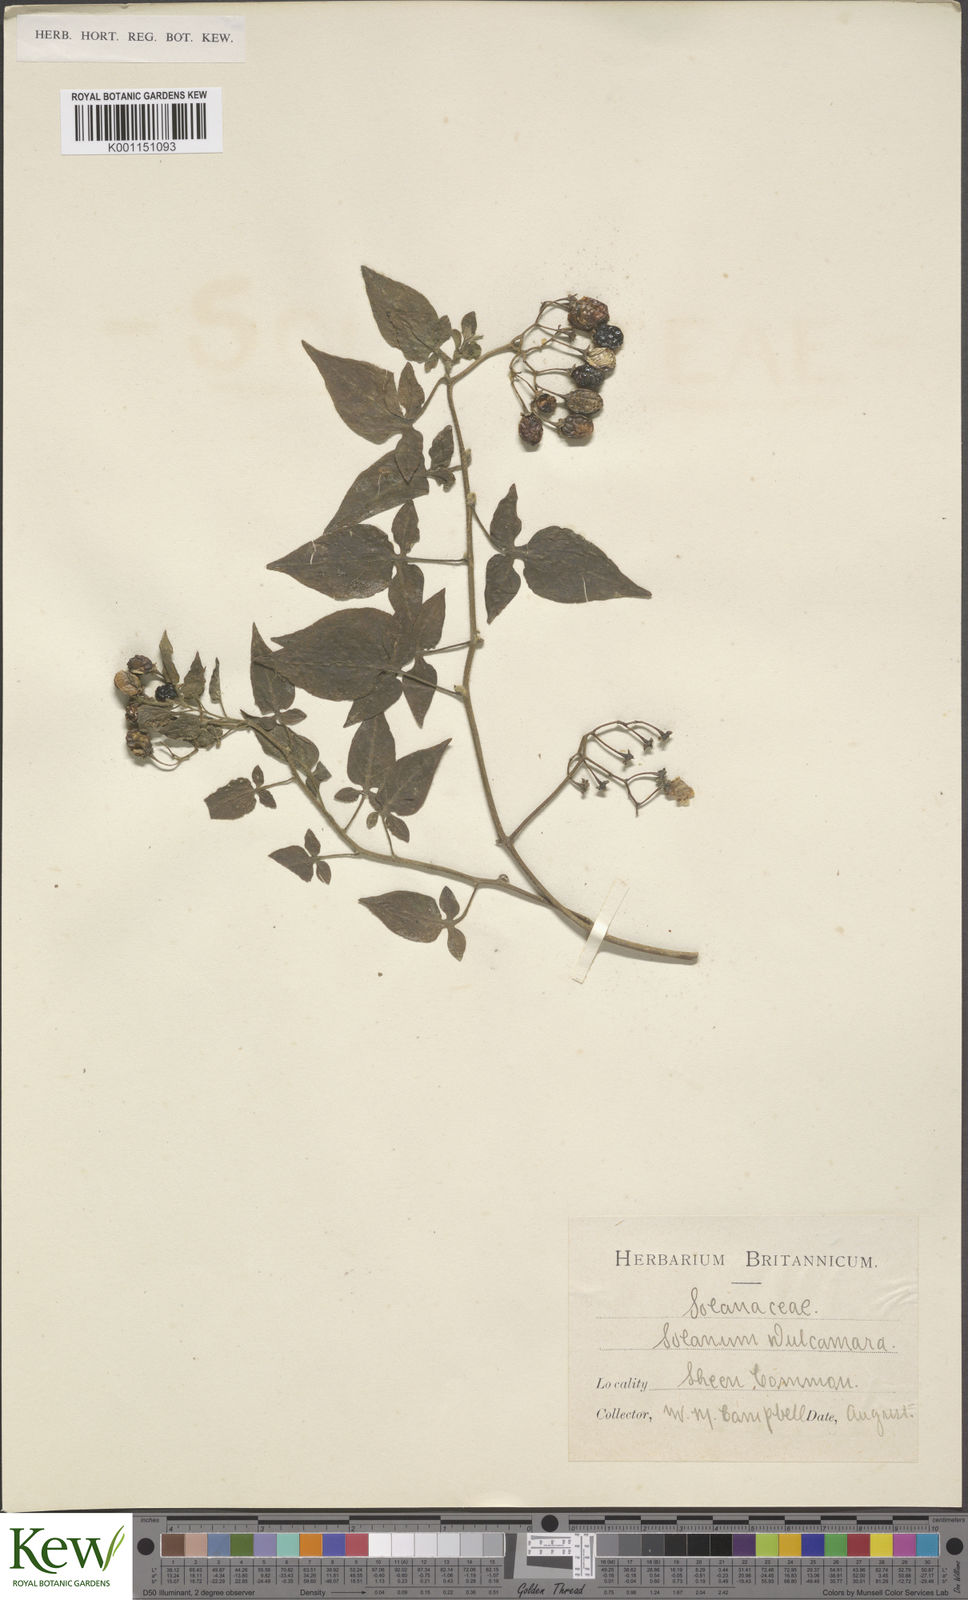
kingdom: Plantae
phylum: Tracheophyta
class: Magnoliopsida
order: Solanales
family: Solanaceae
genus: Solanum
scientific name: Solanum dulcamara
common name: Climbing nightshade
